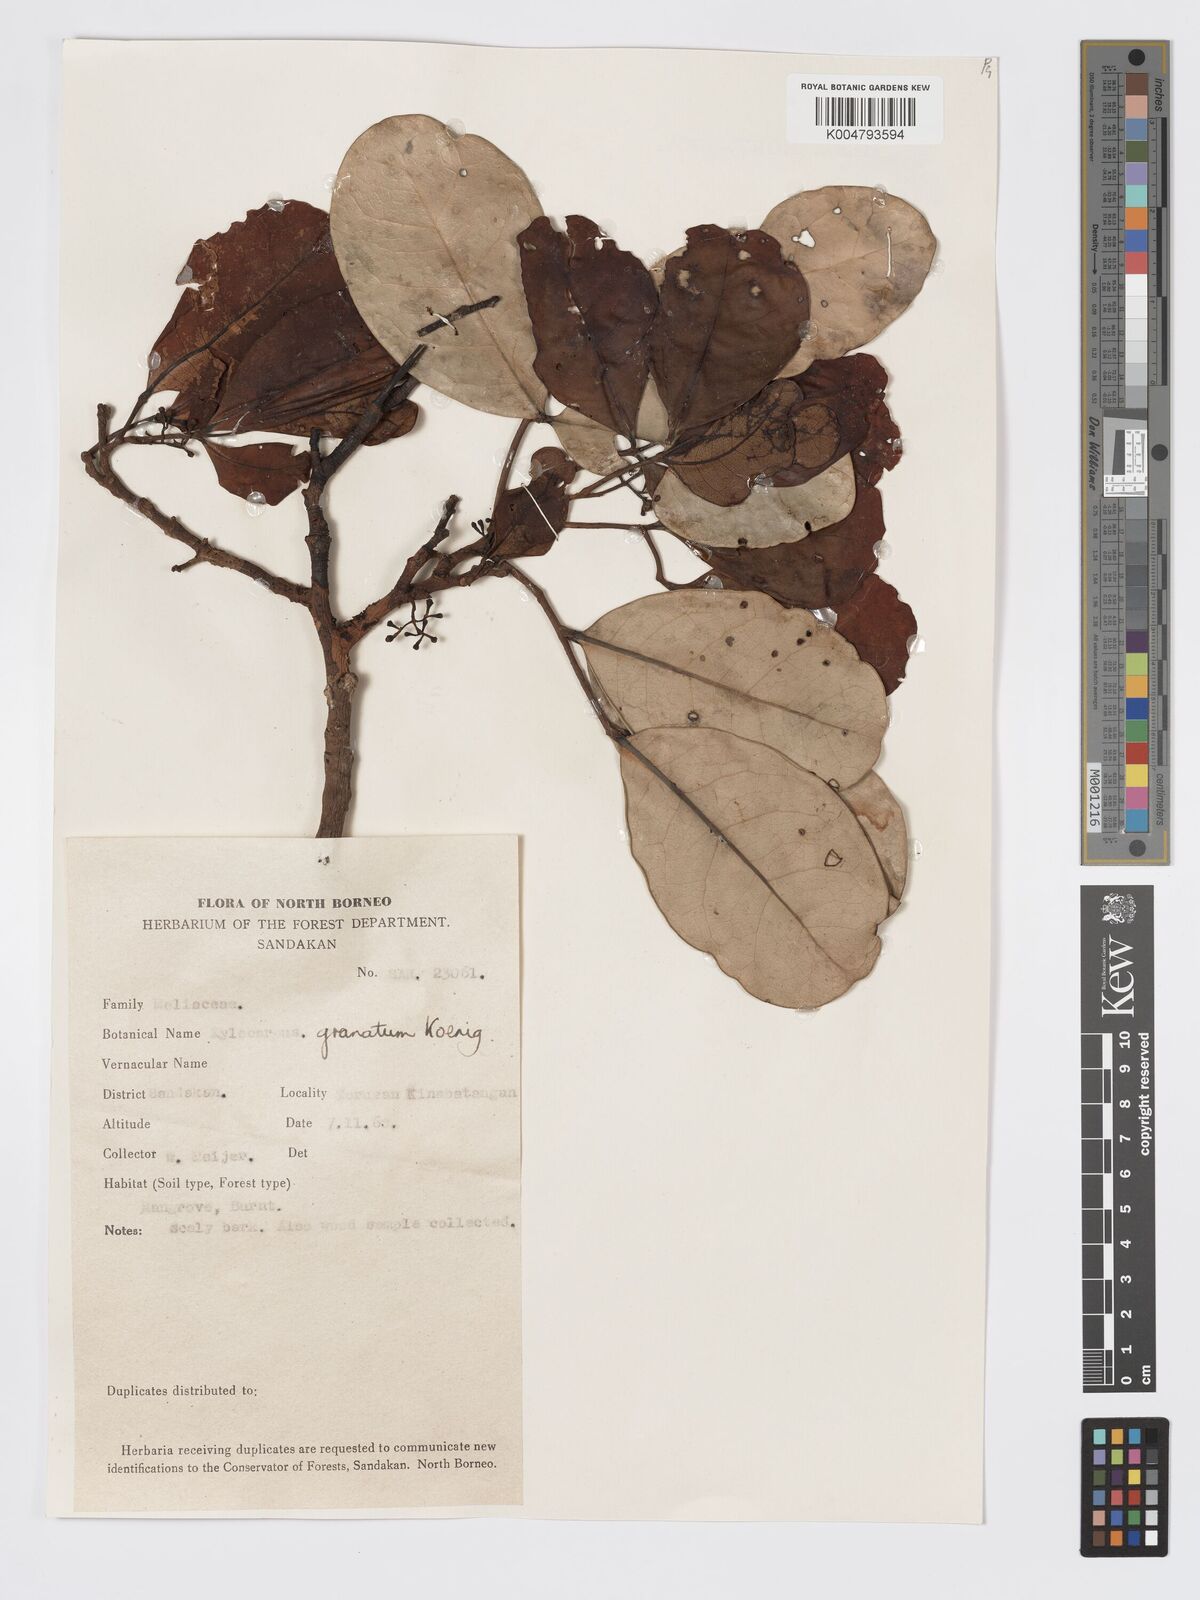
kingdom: Plantae
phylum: Tracheophyta
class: Magnoliopsida
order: Sapindales
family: Meliaceae
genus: Xylocarpus
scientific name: Xylocarpus granatum
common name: Apple mangrove
